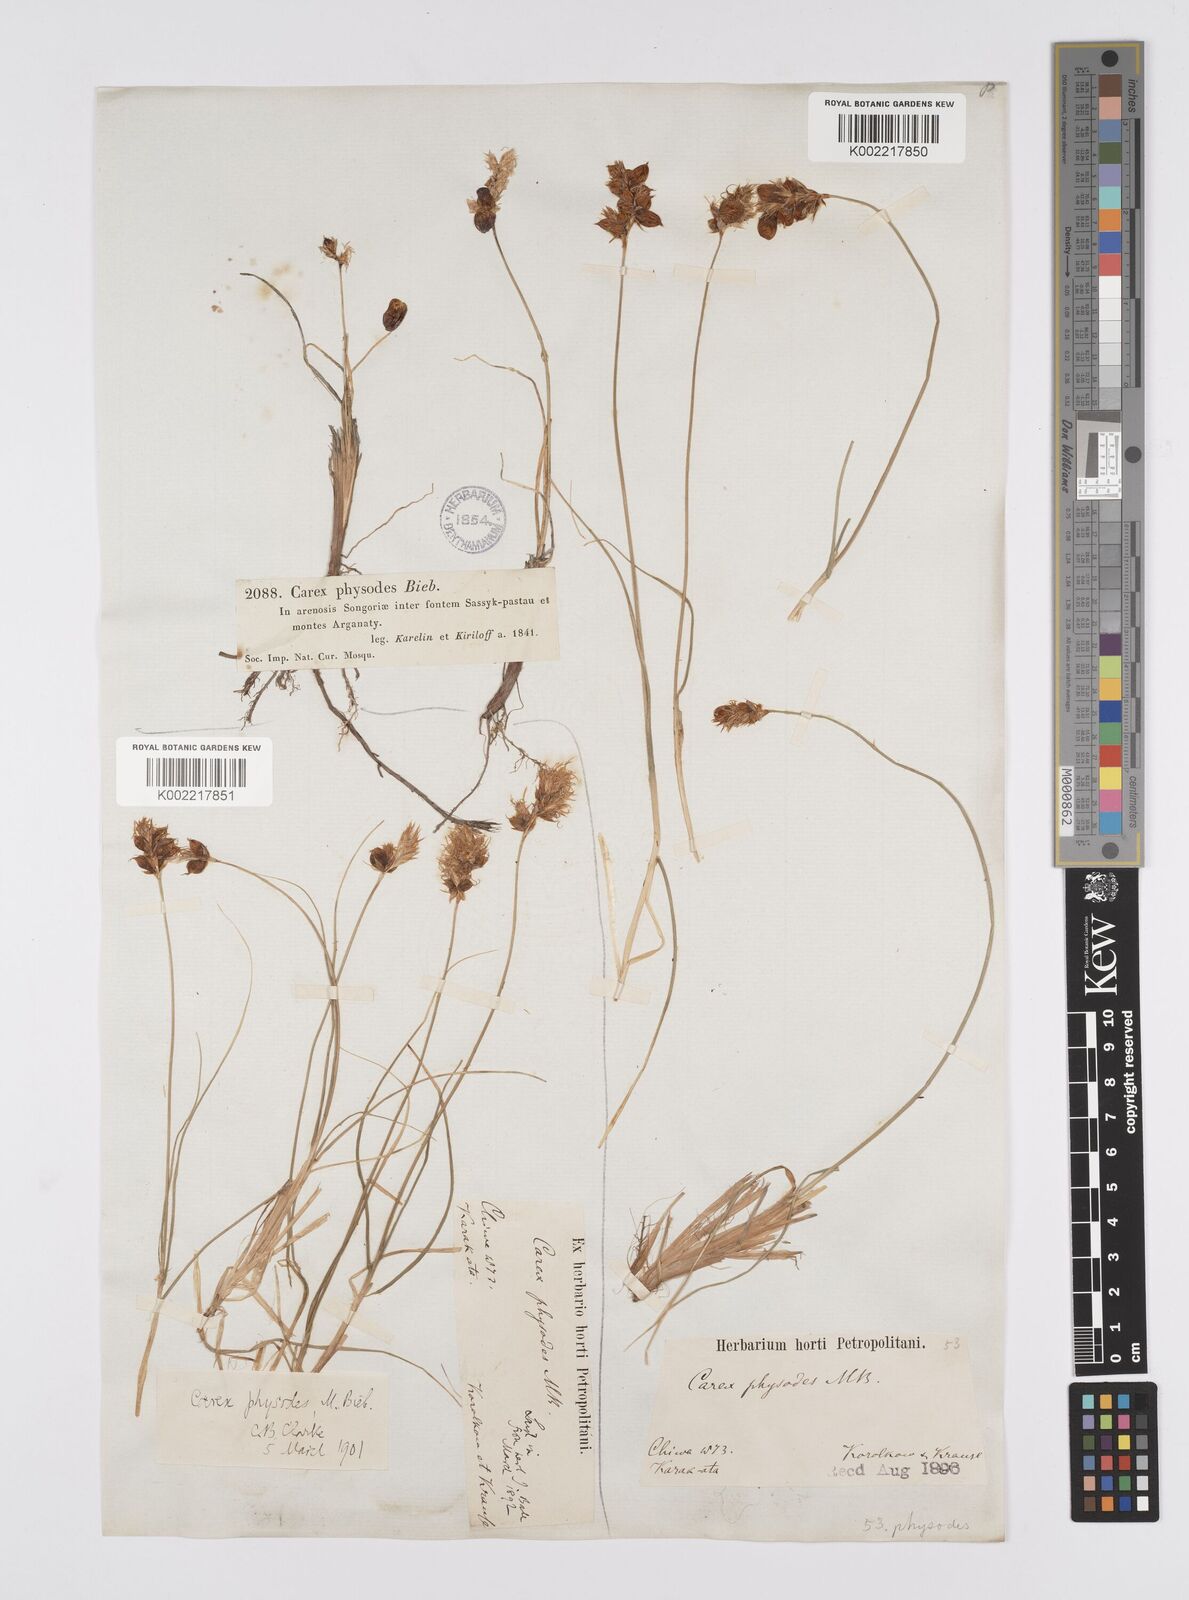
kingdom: Plantae
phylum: Tracheophyta
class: Liliopsida
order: Poales
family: Cyperaceae
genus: Carex
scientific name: Carex physodes
